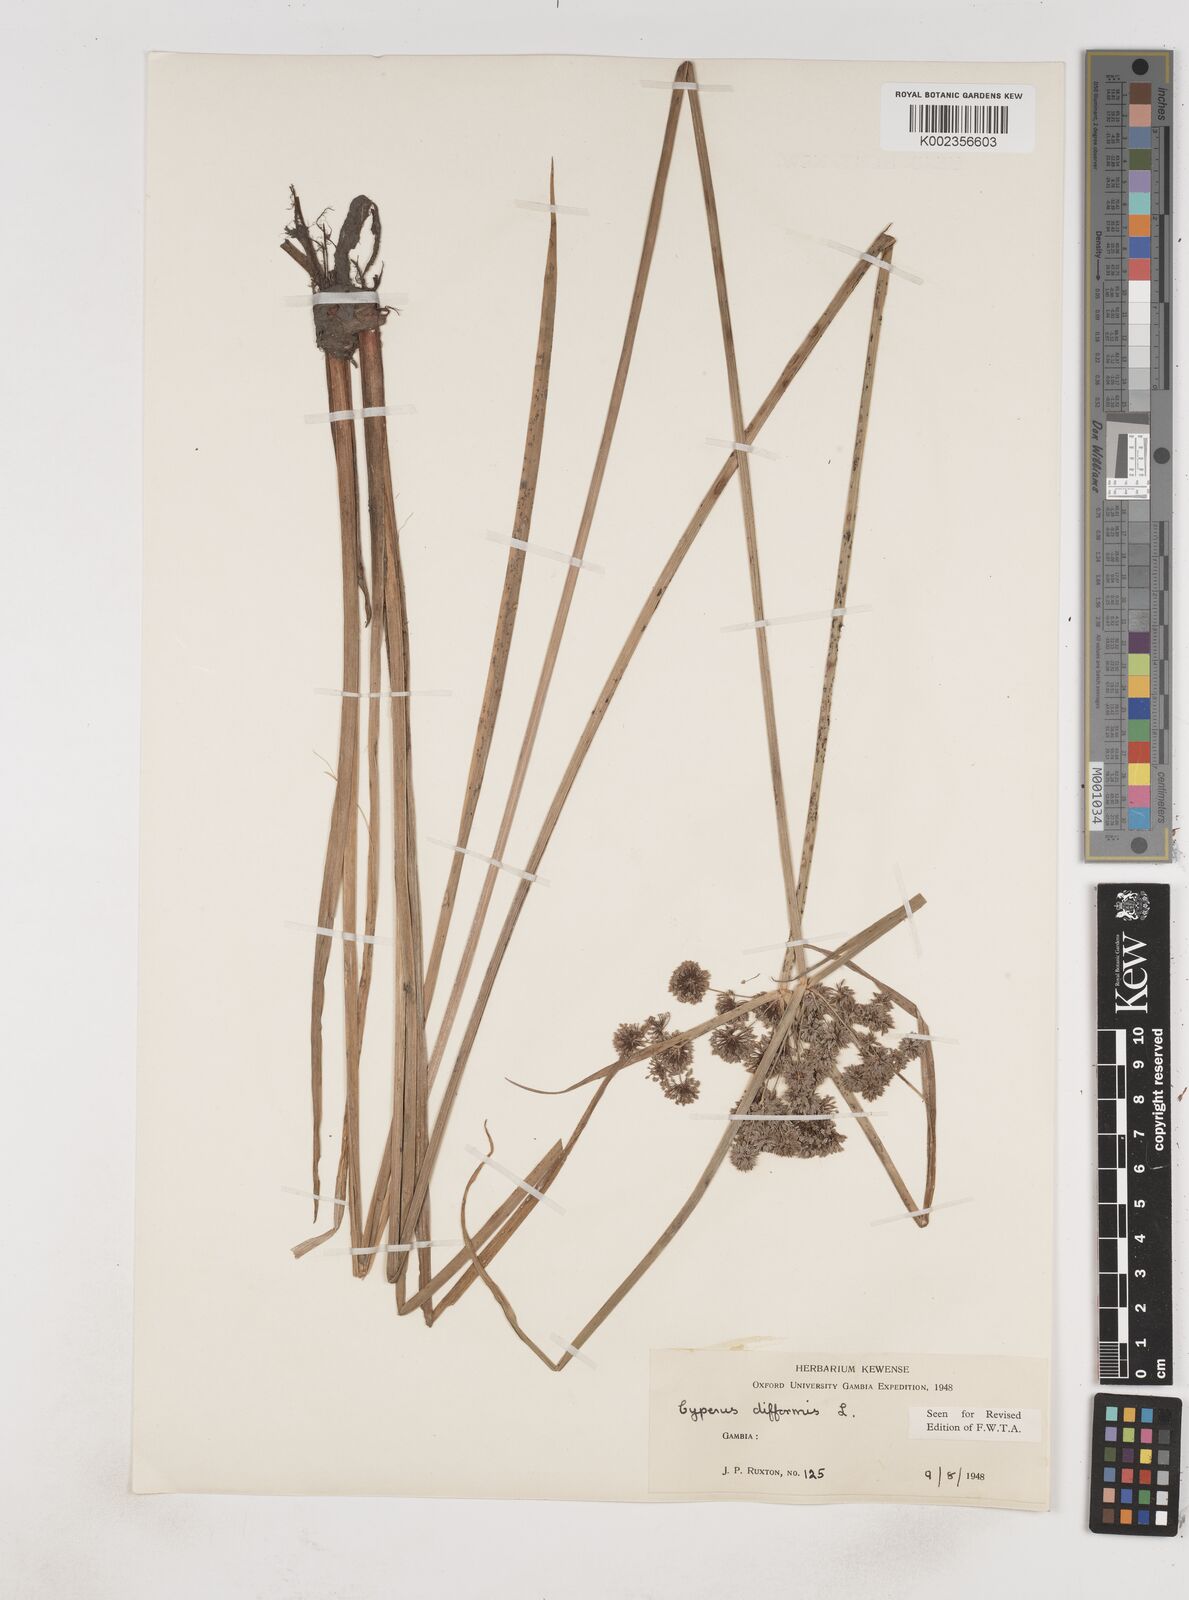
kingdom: Plantae
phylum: Tracheophyta
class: Liliopsida
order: Poales
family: Cyperaceae
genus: Cyperus
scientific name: Cyperus difformis
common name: Variable flatsedge
